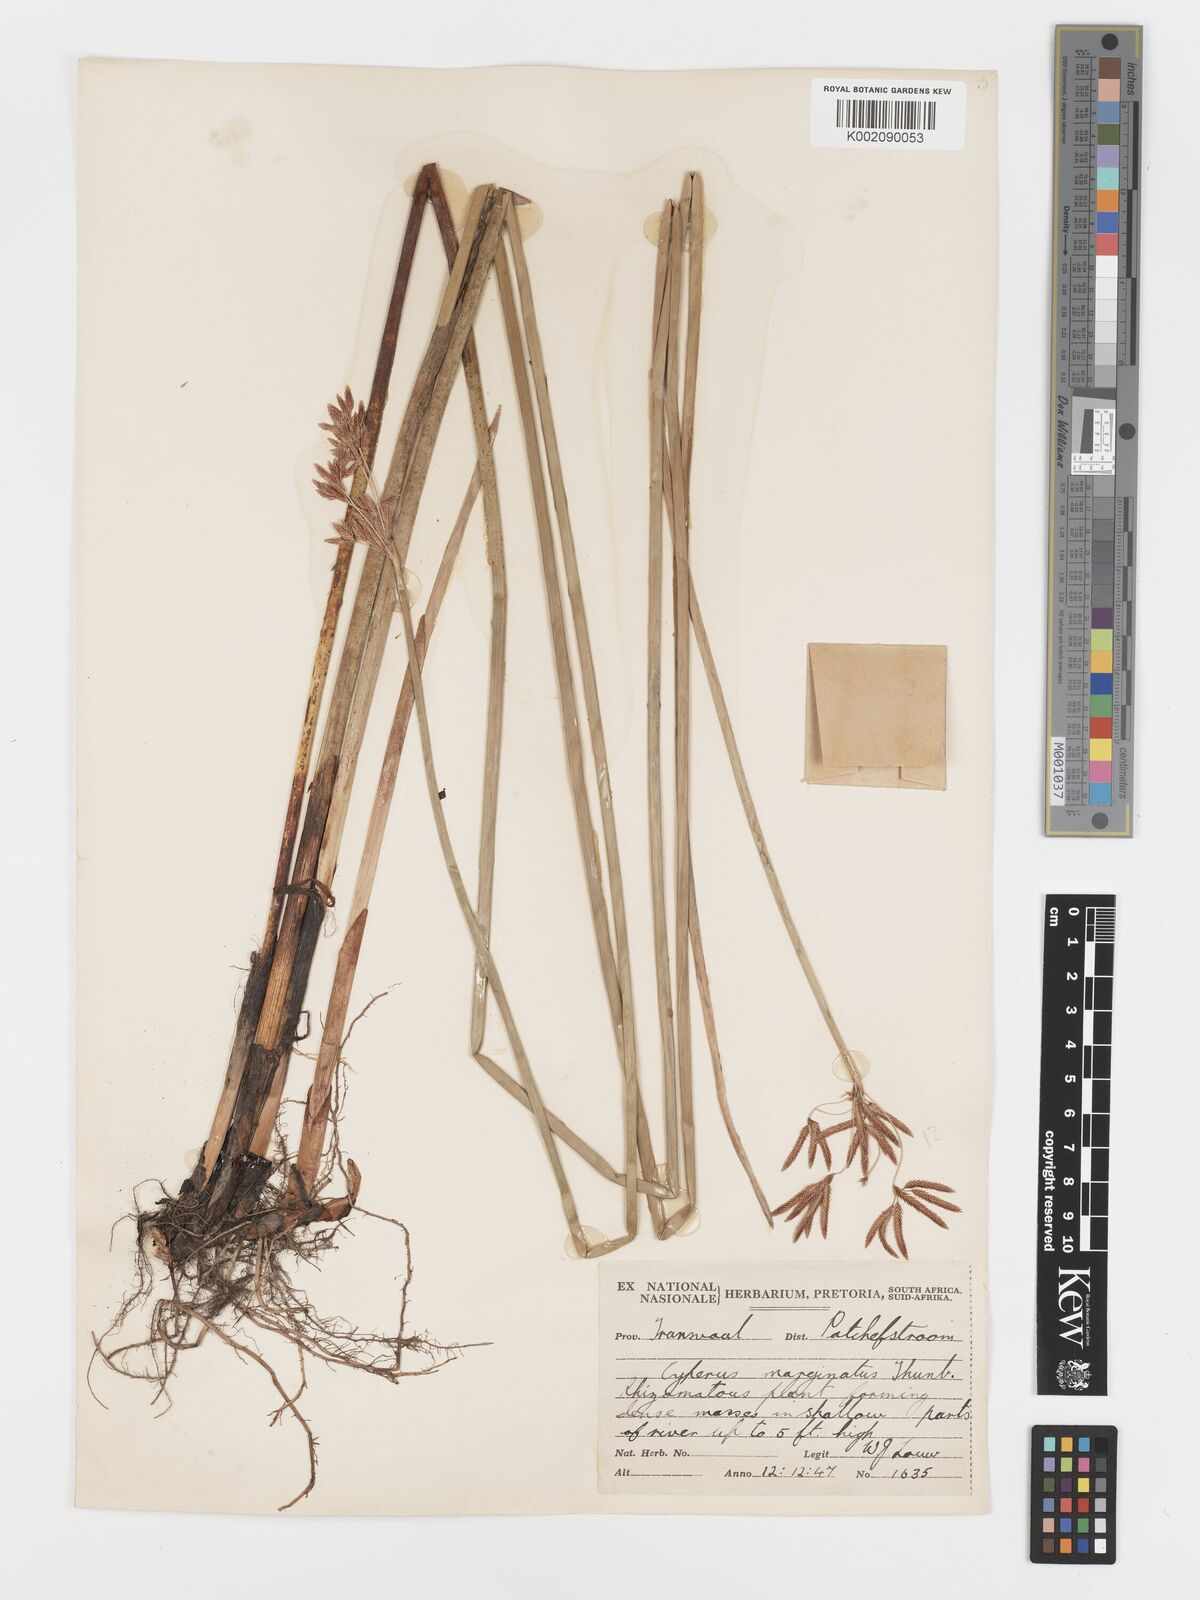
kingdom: Plantae
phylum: Tracheophyta
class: Liliopsida
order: Poales
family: Cyperaceae
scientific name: Cyperaceae
